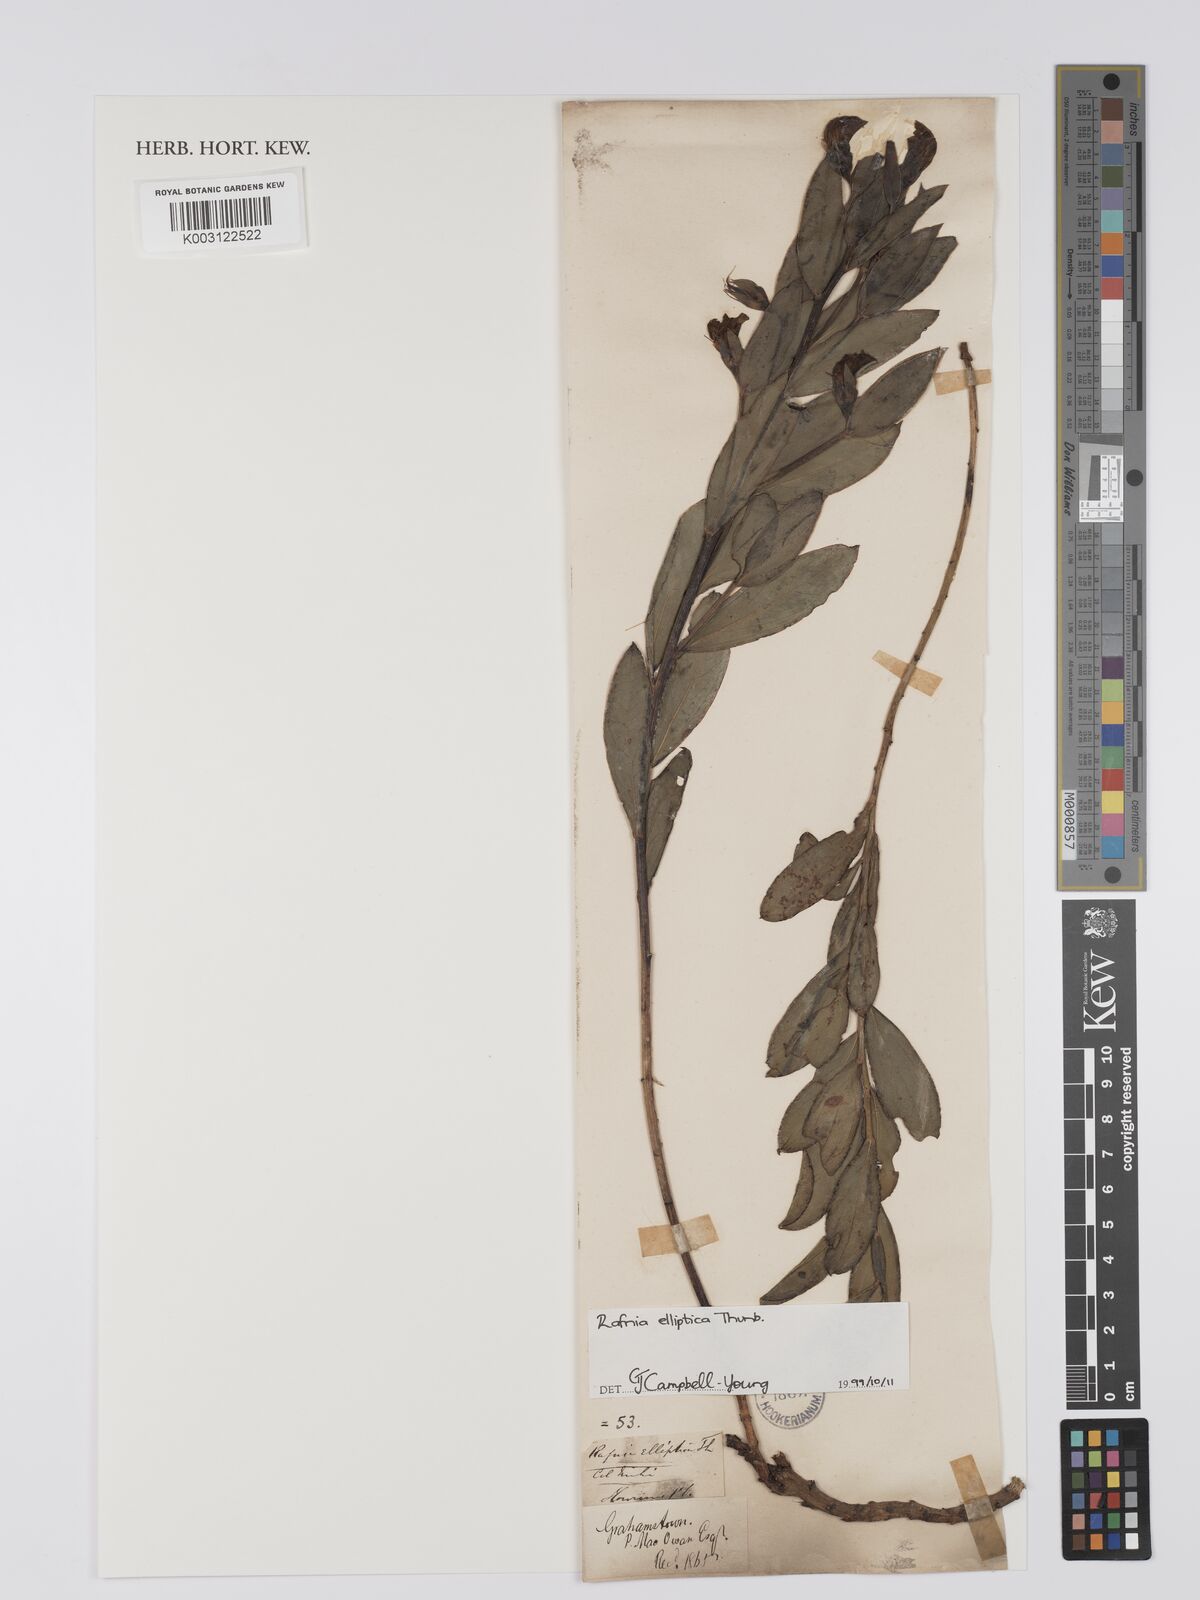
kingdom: Plantae
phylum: Tracheophyta
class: Magnoliopsida
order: Fabales
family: Fabaceae
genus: Rafnia
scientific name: Rafnia elliptica
